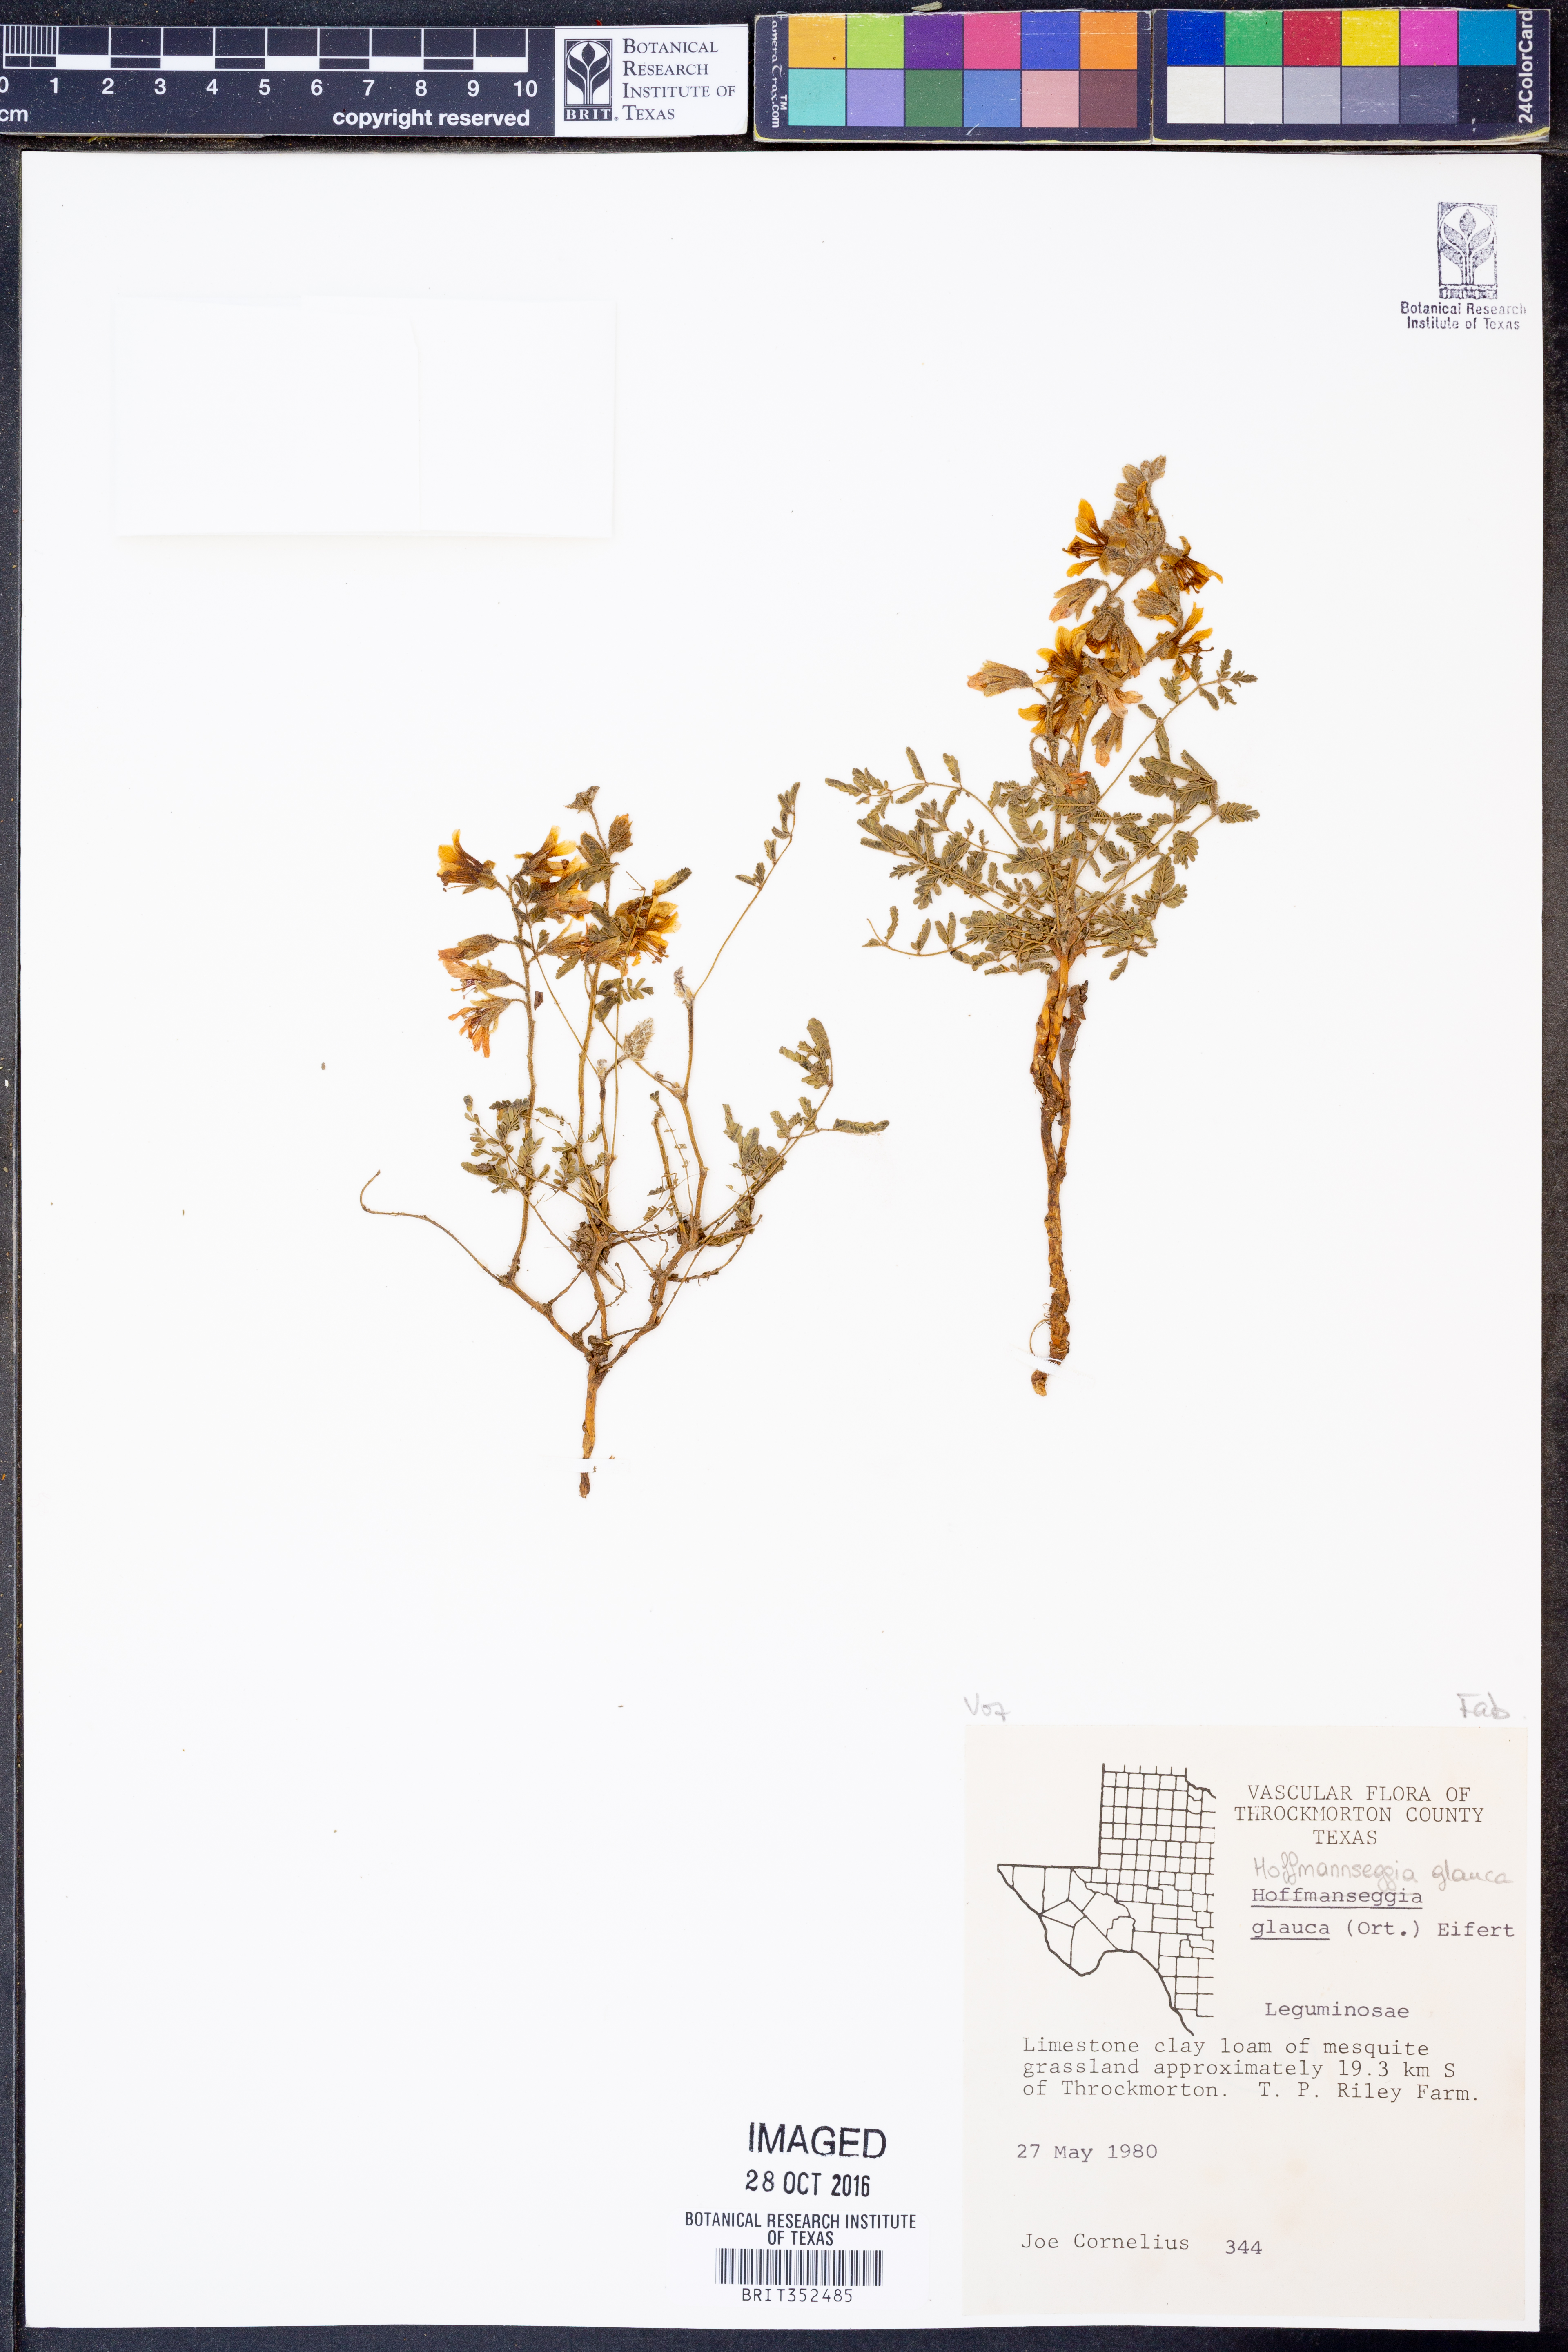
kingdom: Plantae
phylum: Tracheophyta
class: Magnoliopsida
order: Fabales
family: Fabaceae
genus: Hoffmannseggia
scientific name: Hoffmannseggia glauca
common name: Pignut
